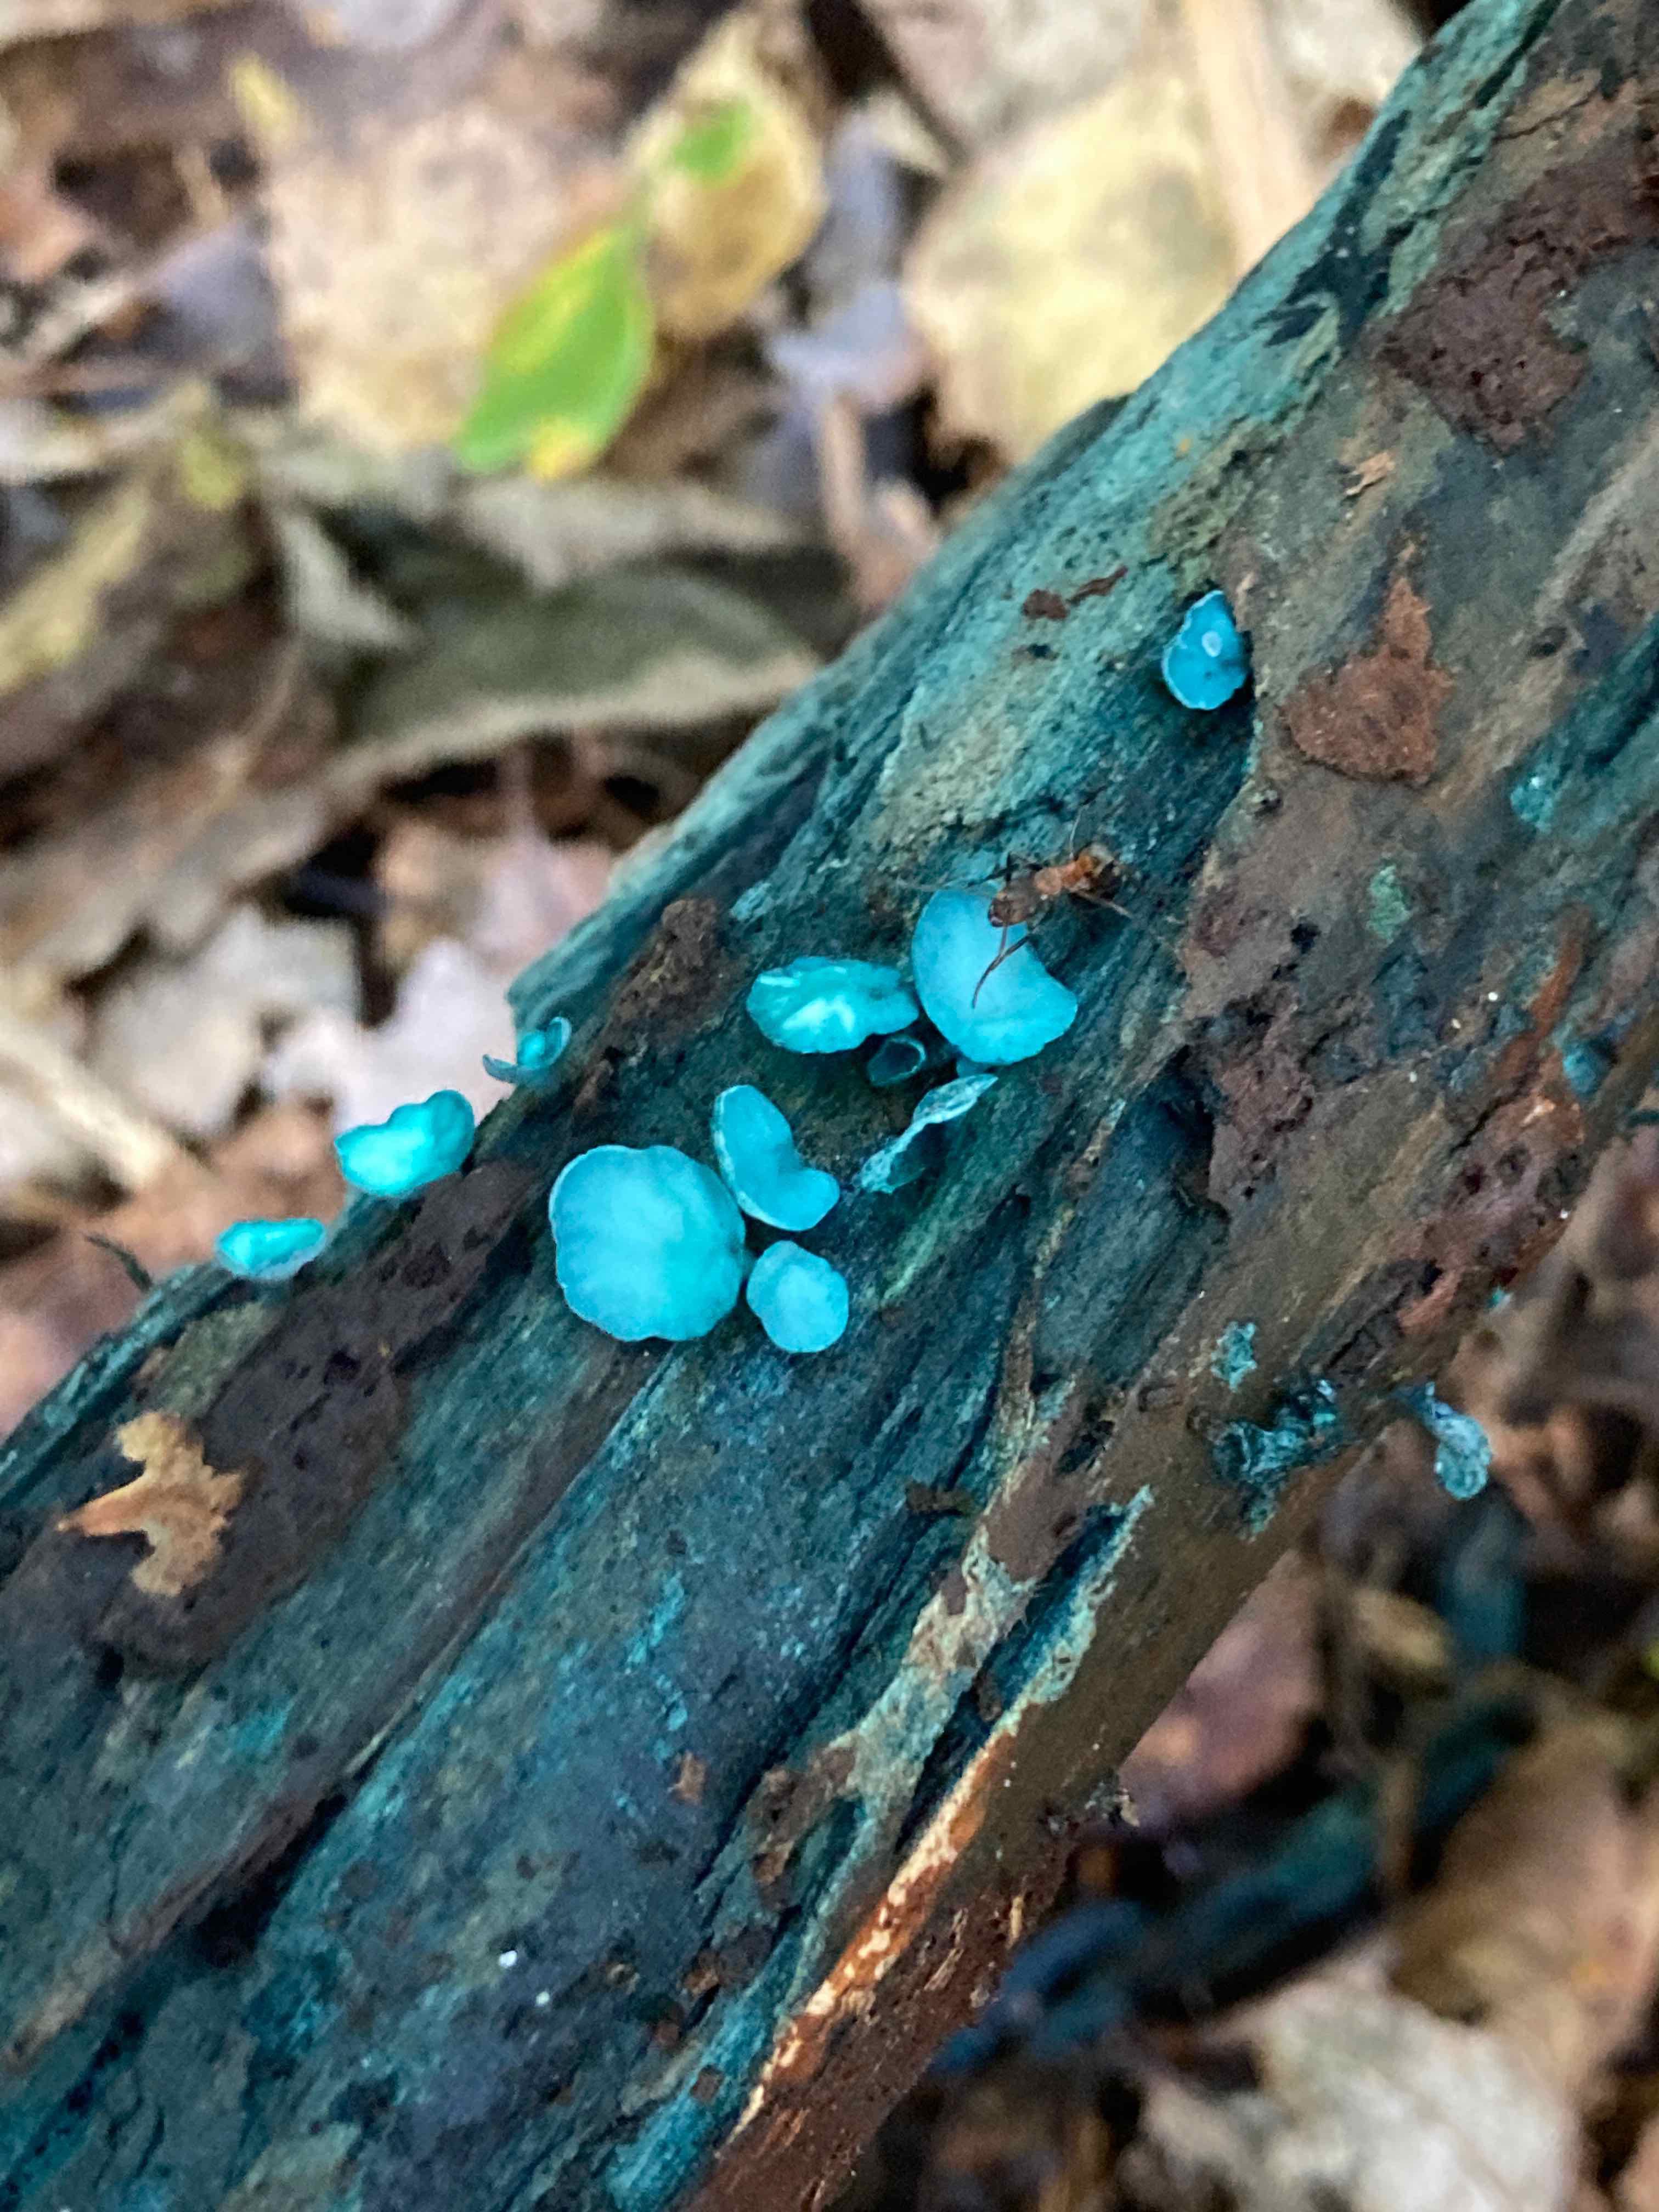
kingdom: Fungi
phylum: Ascomycota
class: Leotiomycetes
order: Helotiales
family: Chlorociboriaceae
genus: Chlorociboria
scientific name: Chlorociboria aeruginascens
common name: almindelig grønskive
